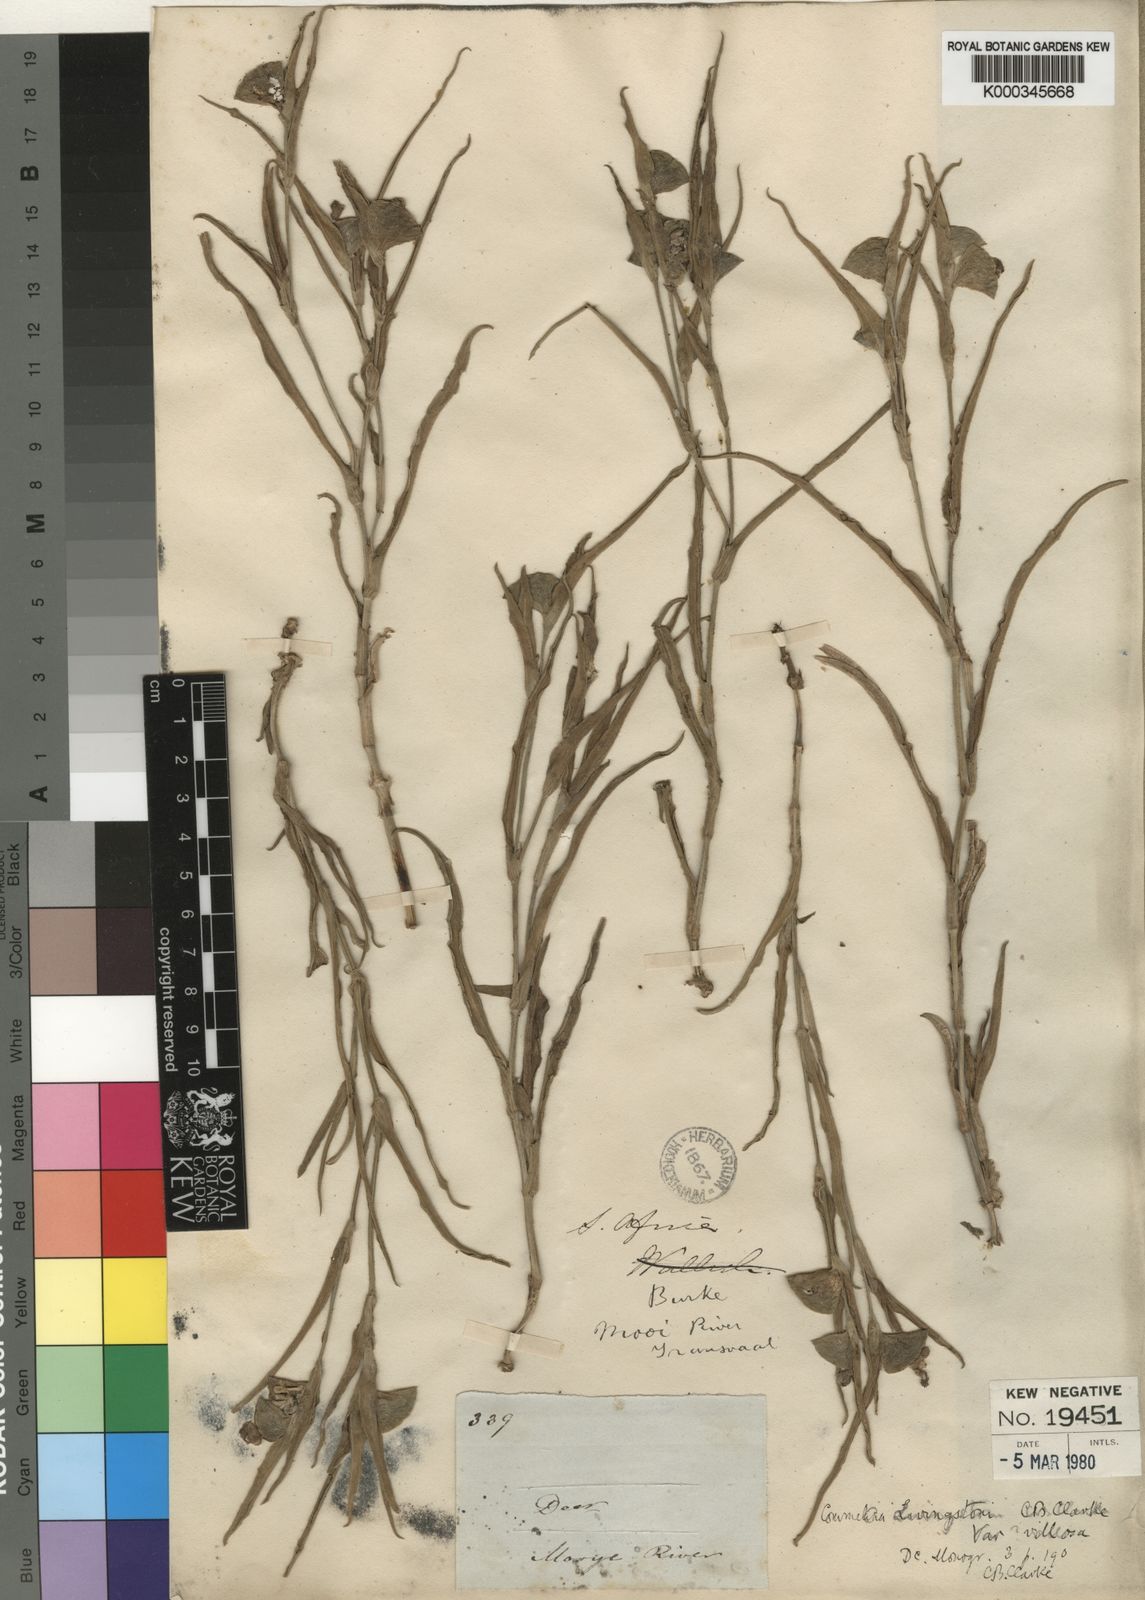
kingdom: Plantae
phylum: Tracheophyta
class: Liliopsida
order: Commelinales
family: Commelinaceae
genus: Commelina
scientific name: Commelina erecta
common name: Blousel blommetjie
